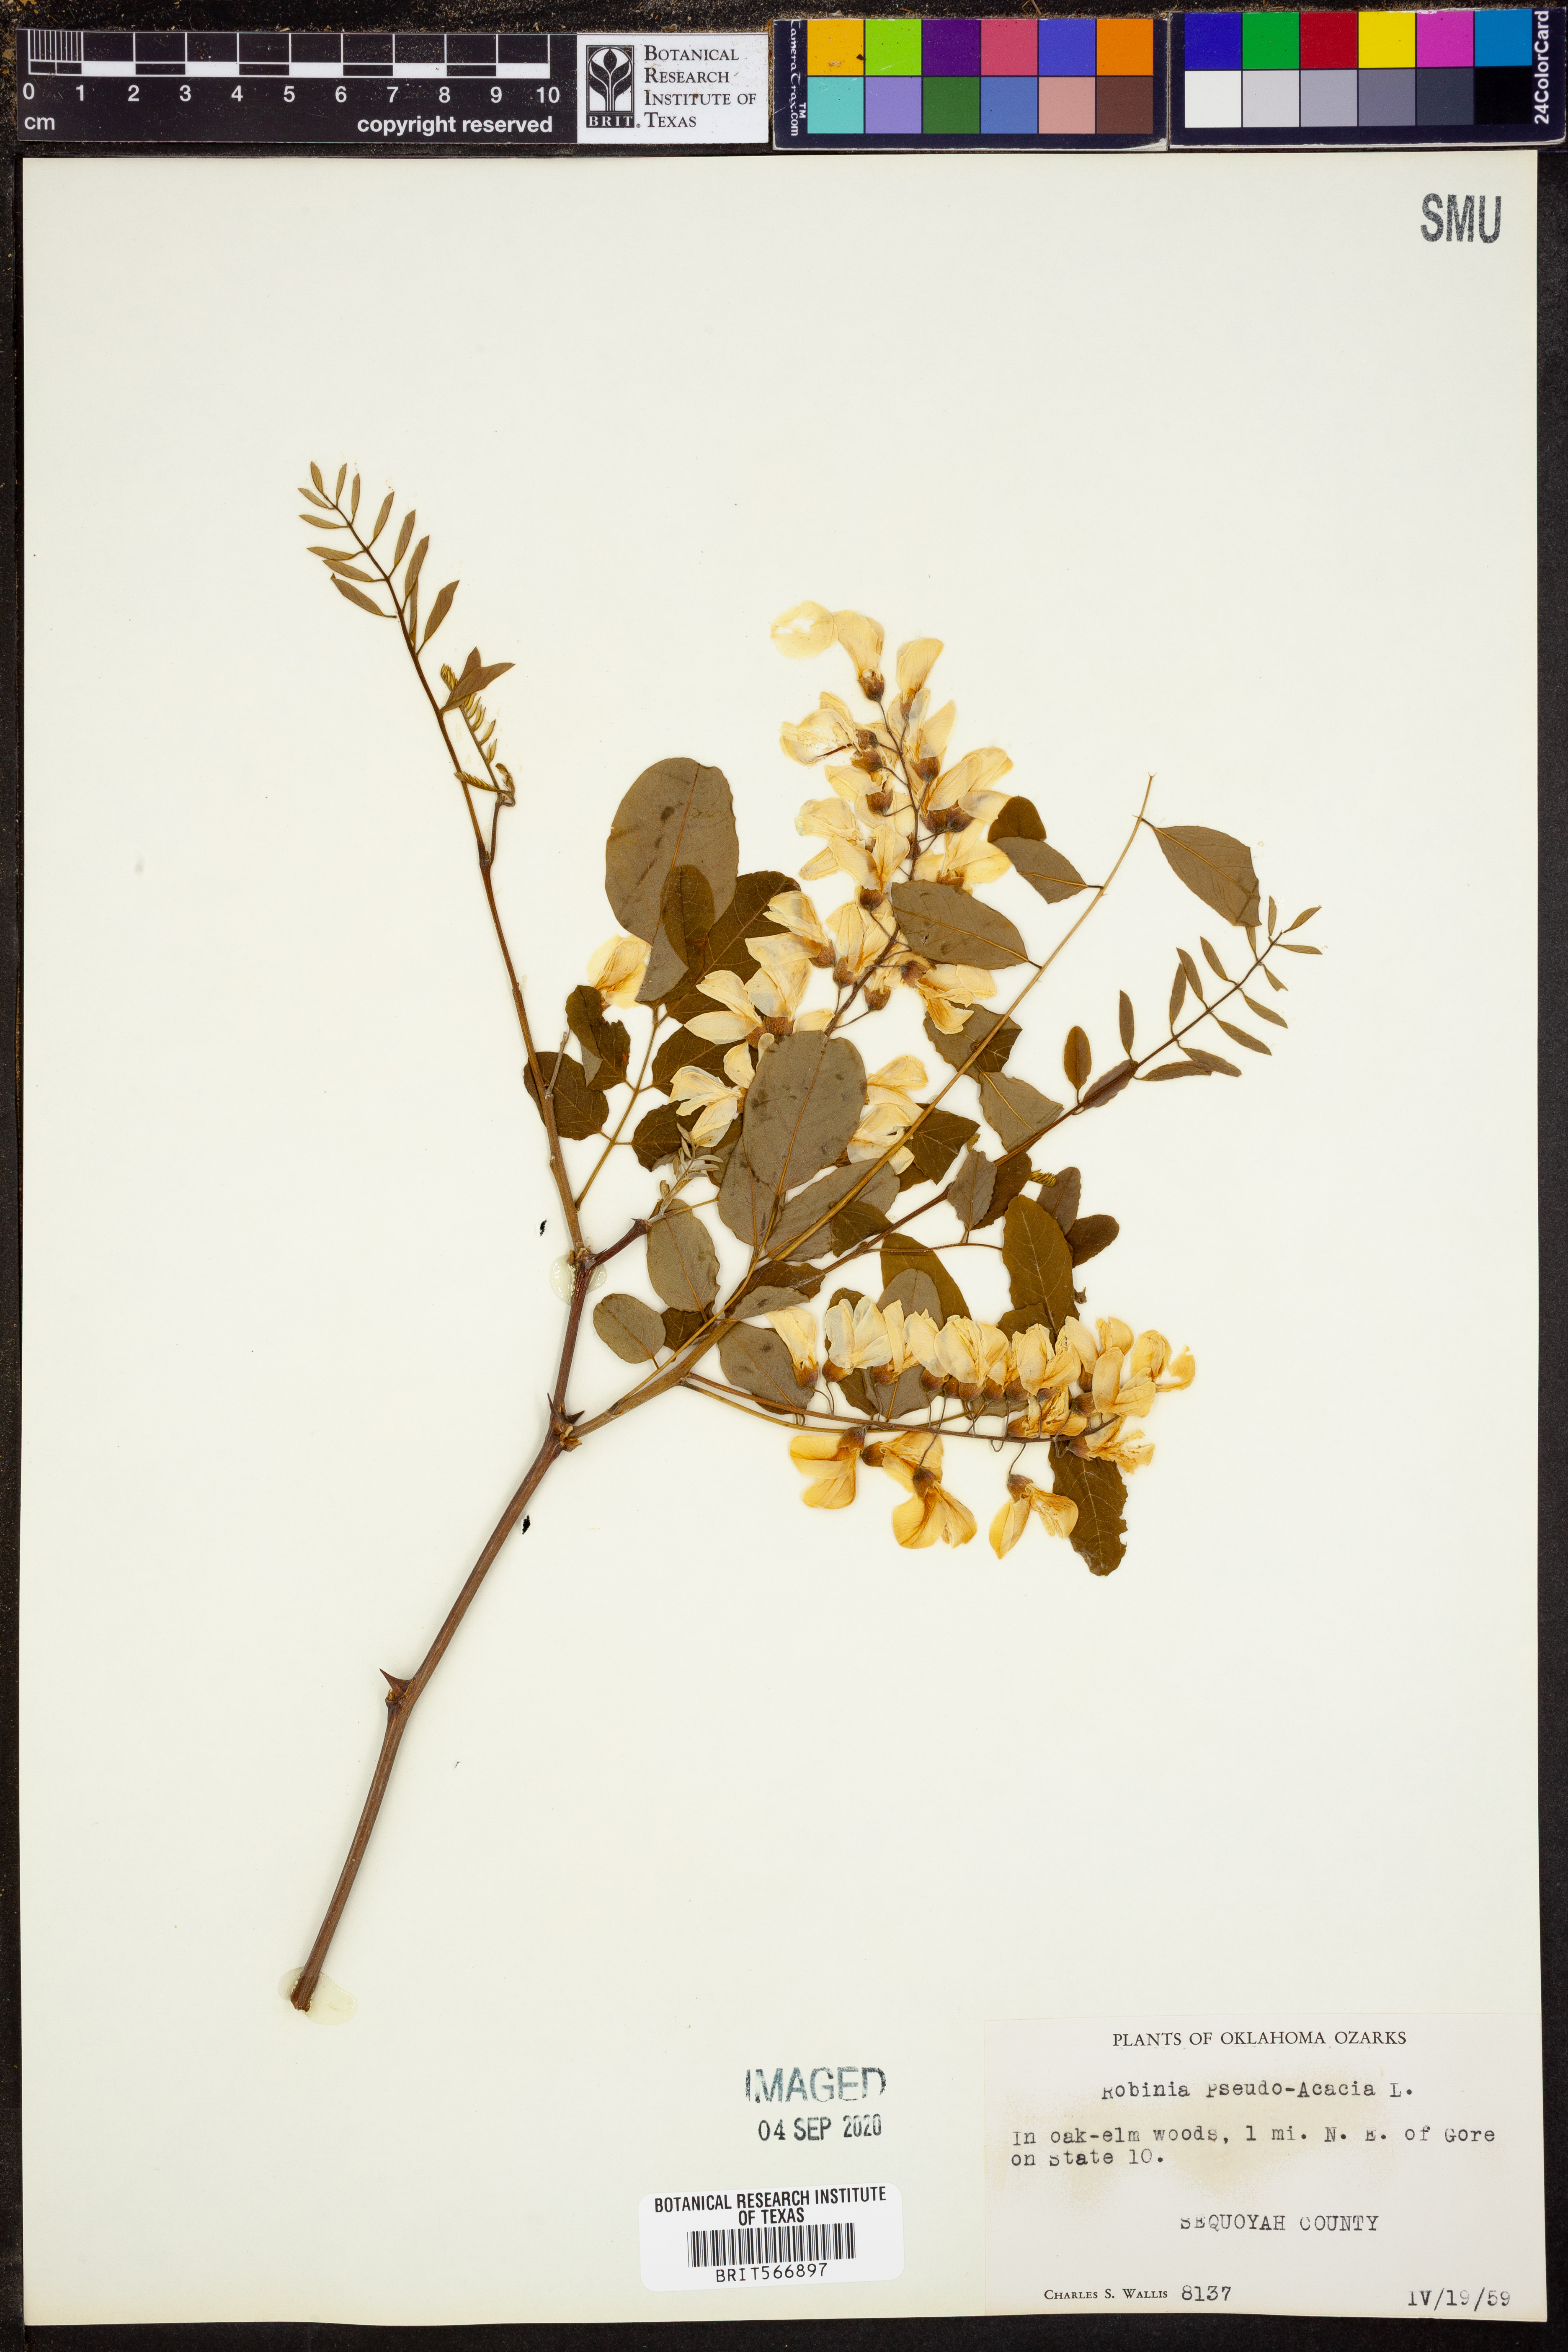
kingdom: Plantae
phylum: Tracheophyta
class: Magnoliopsida
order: Fabales
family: Fabaceae
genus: Robinia
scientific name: Robinia pseudoacacia
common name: Black locust
